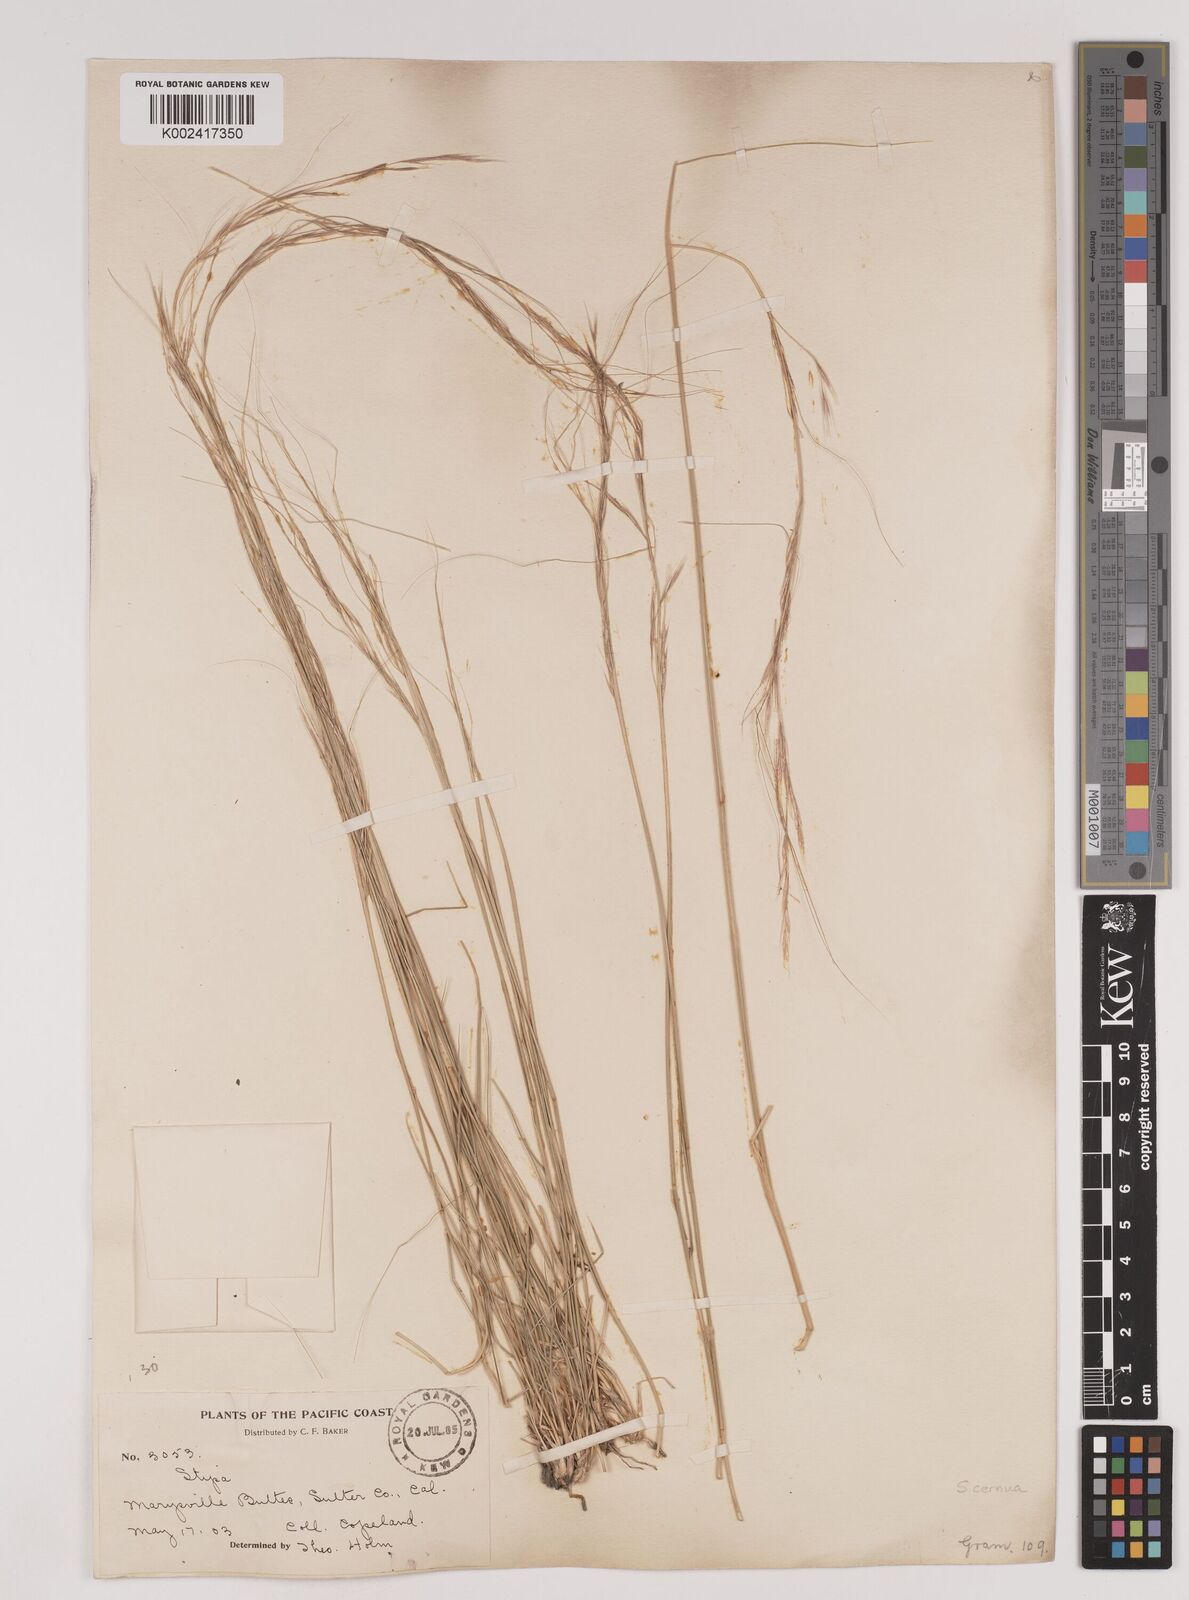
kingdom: Plantae
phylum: Tracheophyta
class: Liliopsida
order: Poales
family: Poaceae
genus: Nassella
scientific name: Nassella cernua
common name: Nodding needlegrass
